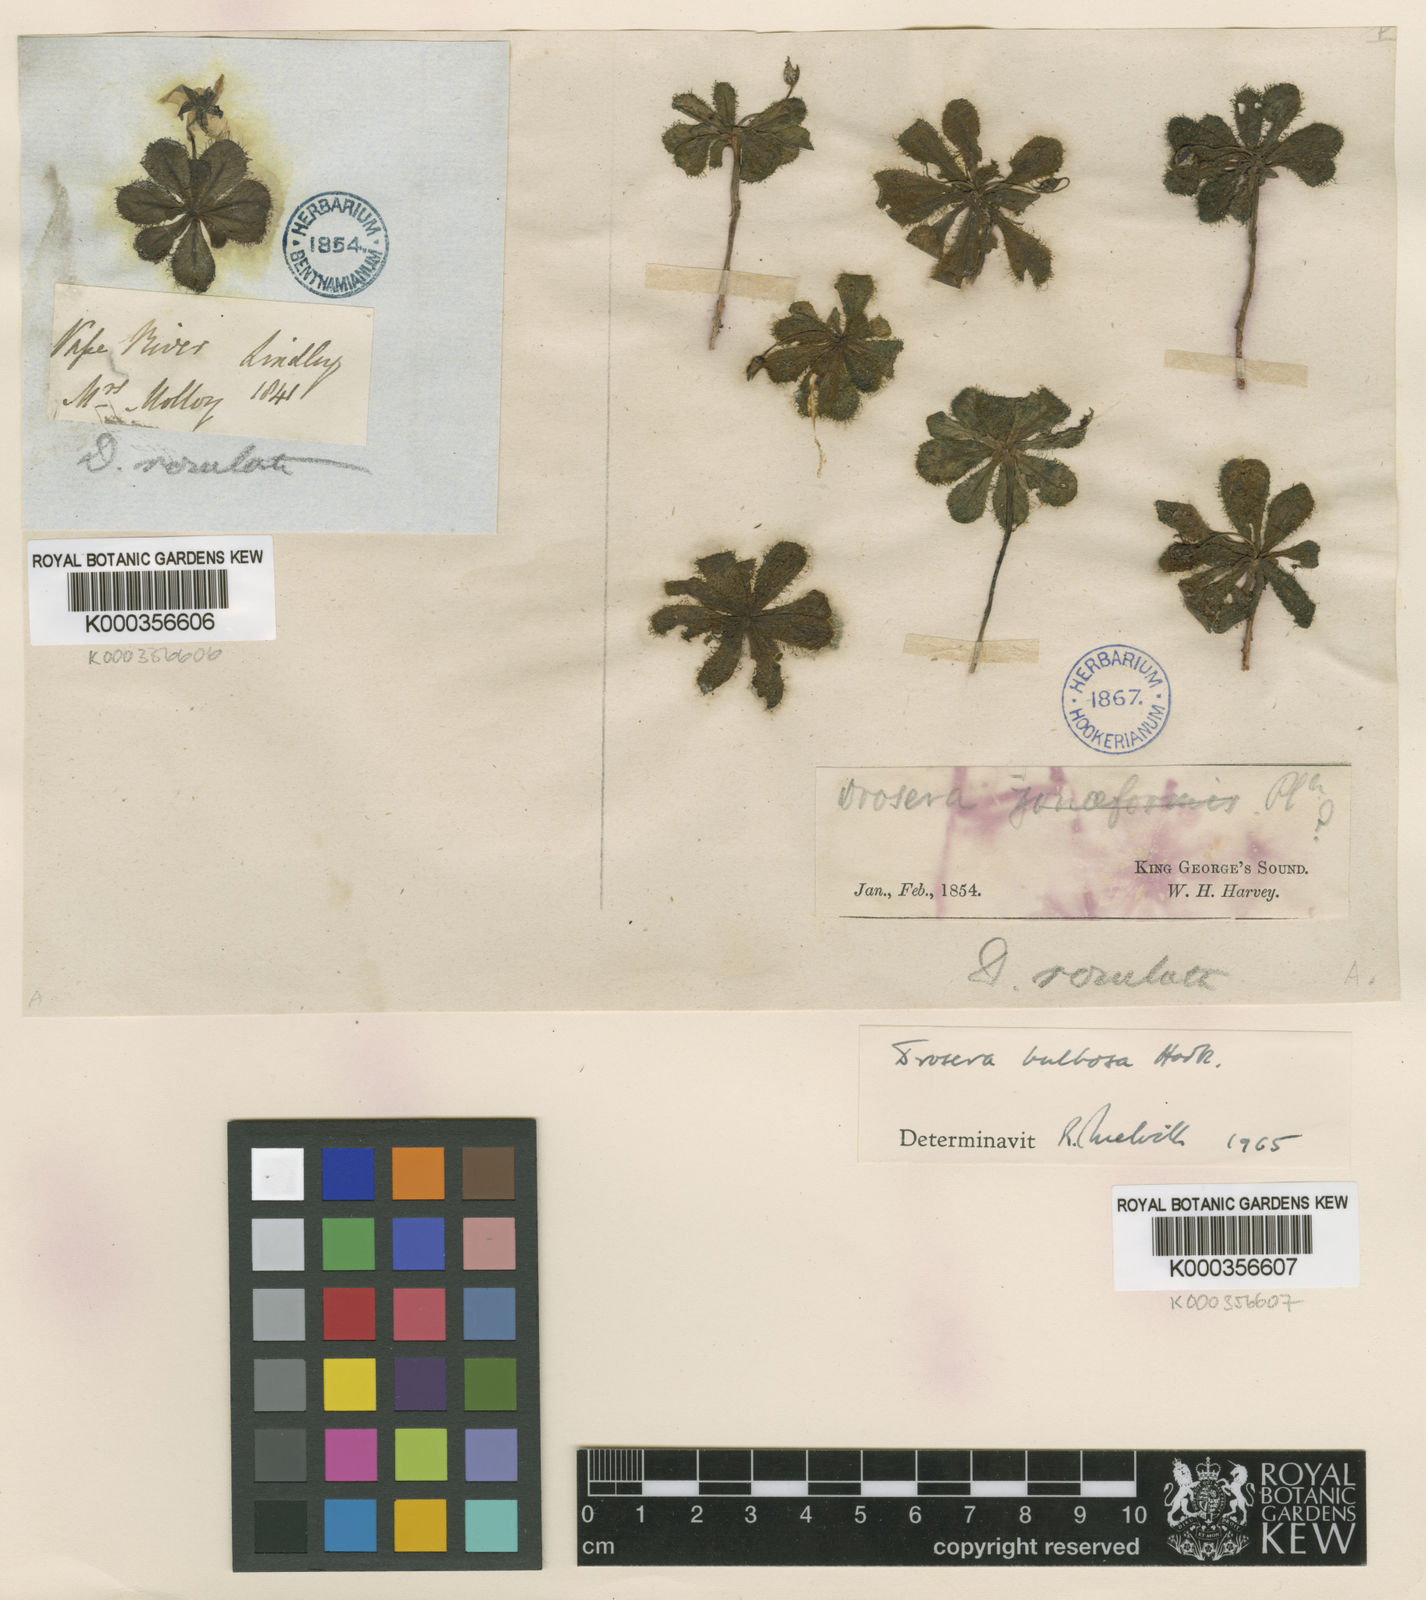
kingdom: Plantae
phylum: Tracheophyta
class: Magnoliopsida
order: Caryophyllales
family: Droseraceae
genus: Drosera
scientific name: Drosera bulbosa
